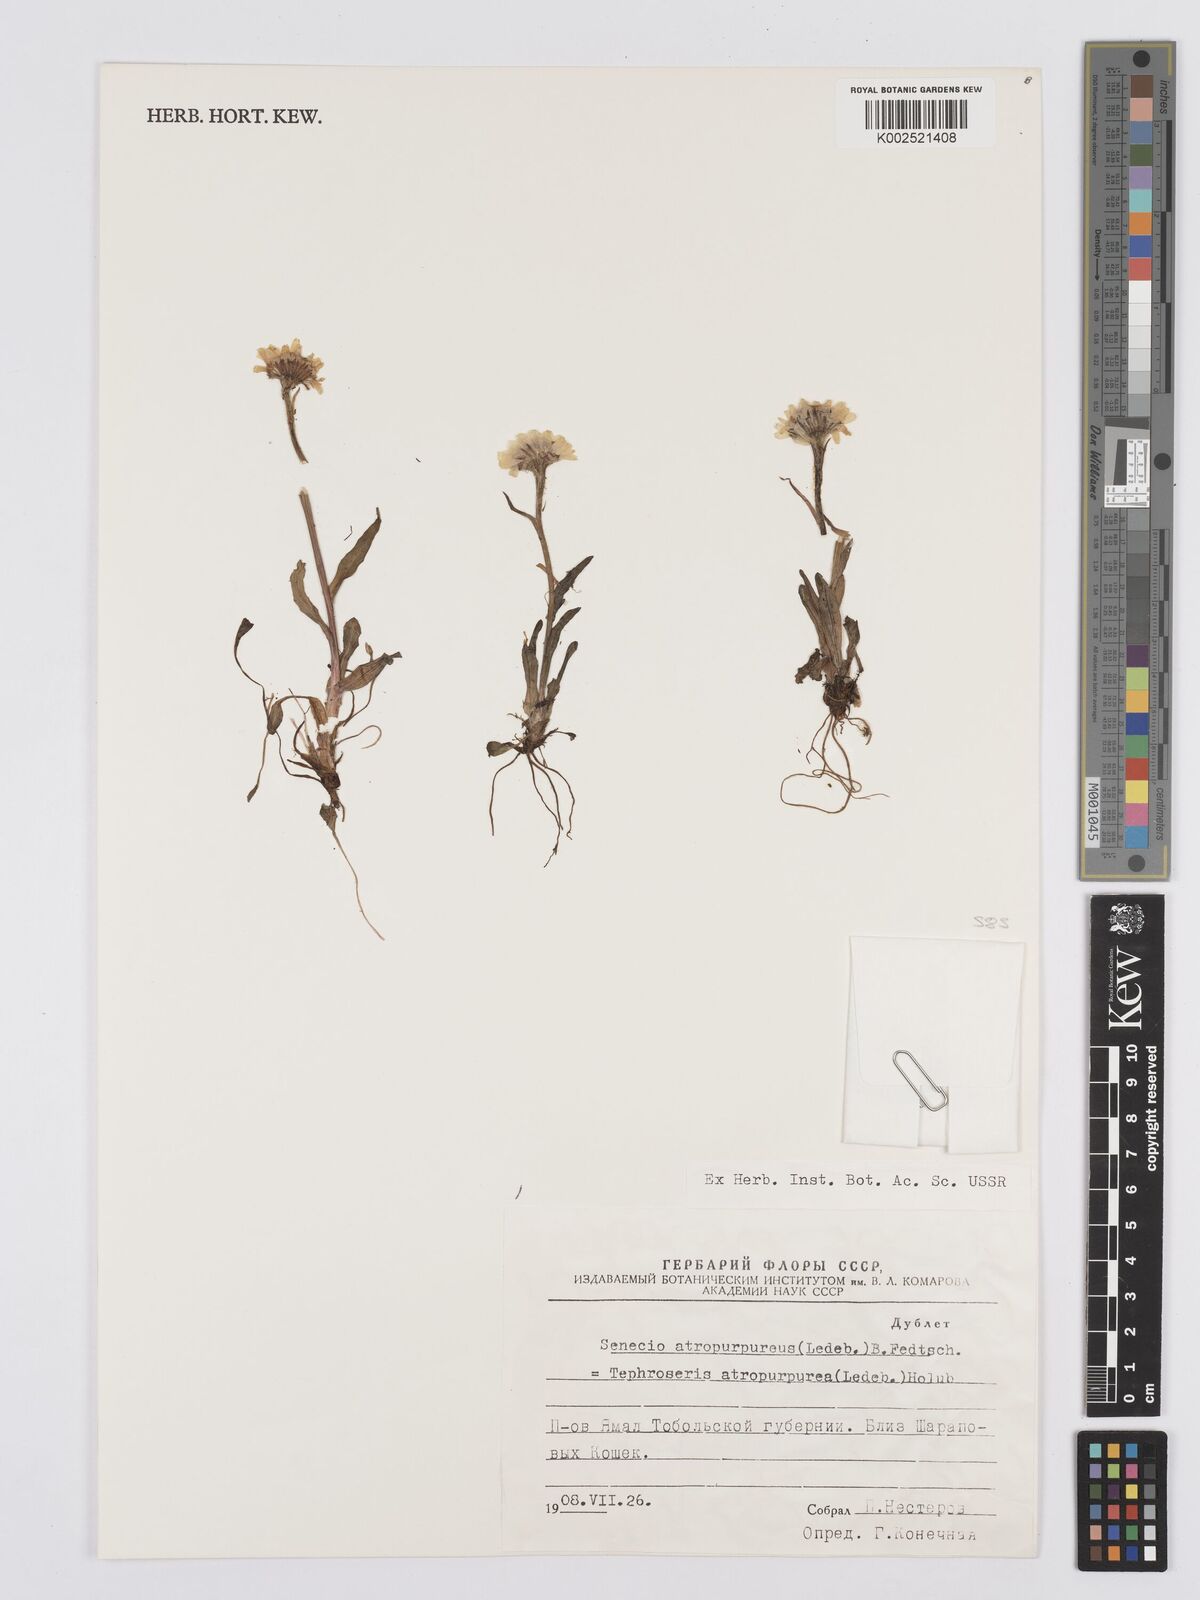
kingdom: Plantae
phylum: Tracheophyta
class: Magnoliopsida
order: Asterales
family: Asteraceae
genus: Tephroseris
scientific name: Tephroseris integrifolia
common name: Field fleawort
